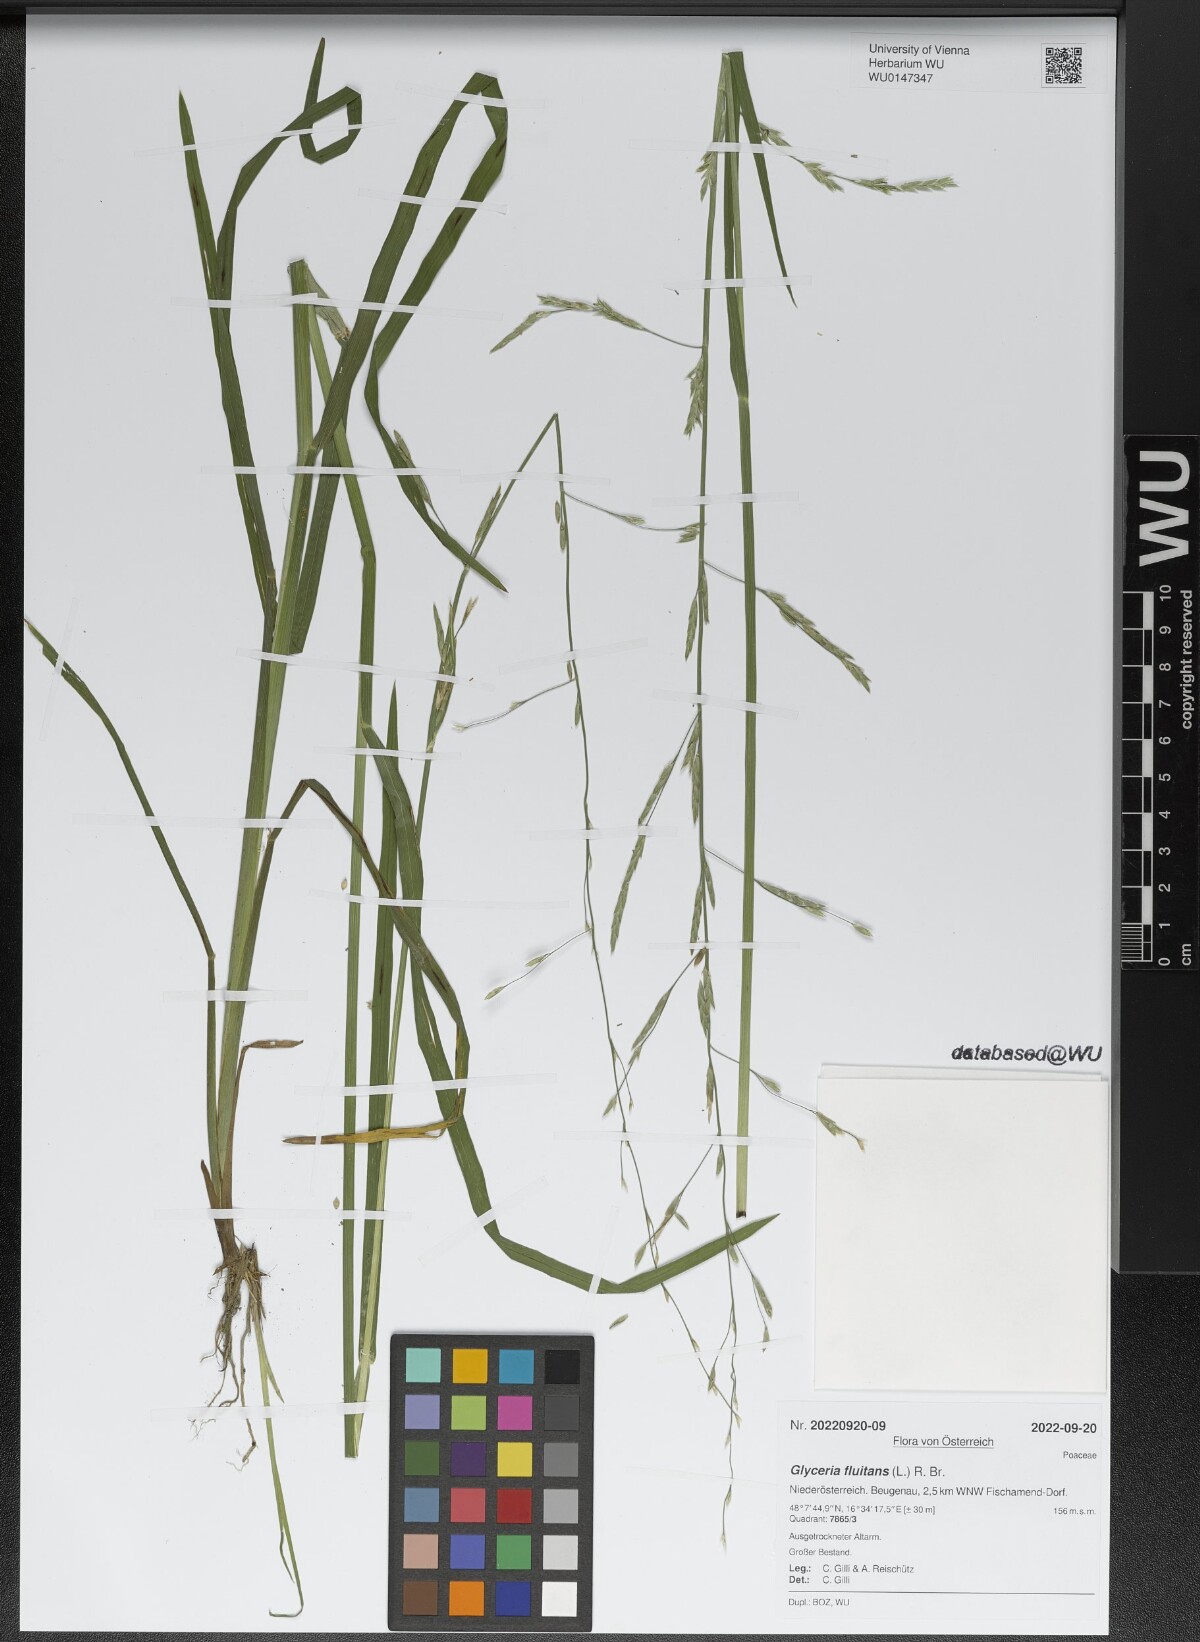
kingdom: Plantae
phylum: Tracheophyta
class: Liliopsida
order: Poales
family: Poaceae
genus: Glyceria
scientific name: Glyceria fluitans
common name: Floating sweet-grass
